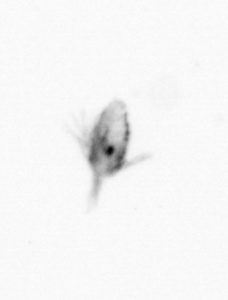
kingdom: Animalia
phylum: Arthropoda
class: Copepoda
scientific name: Copepoda
